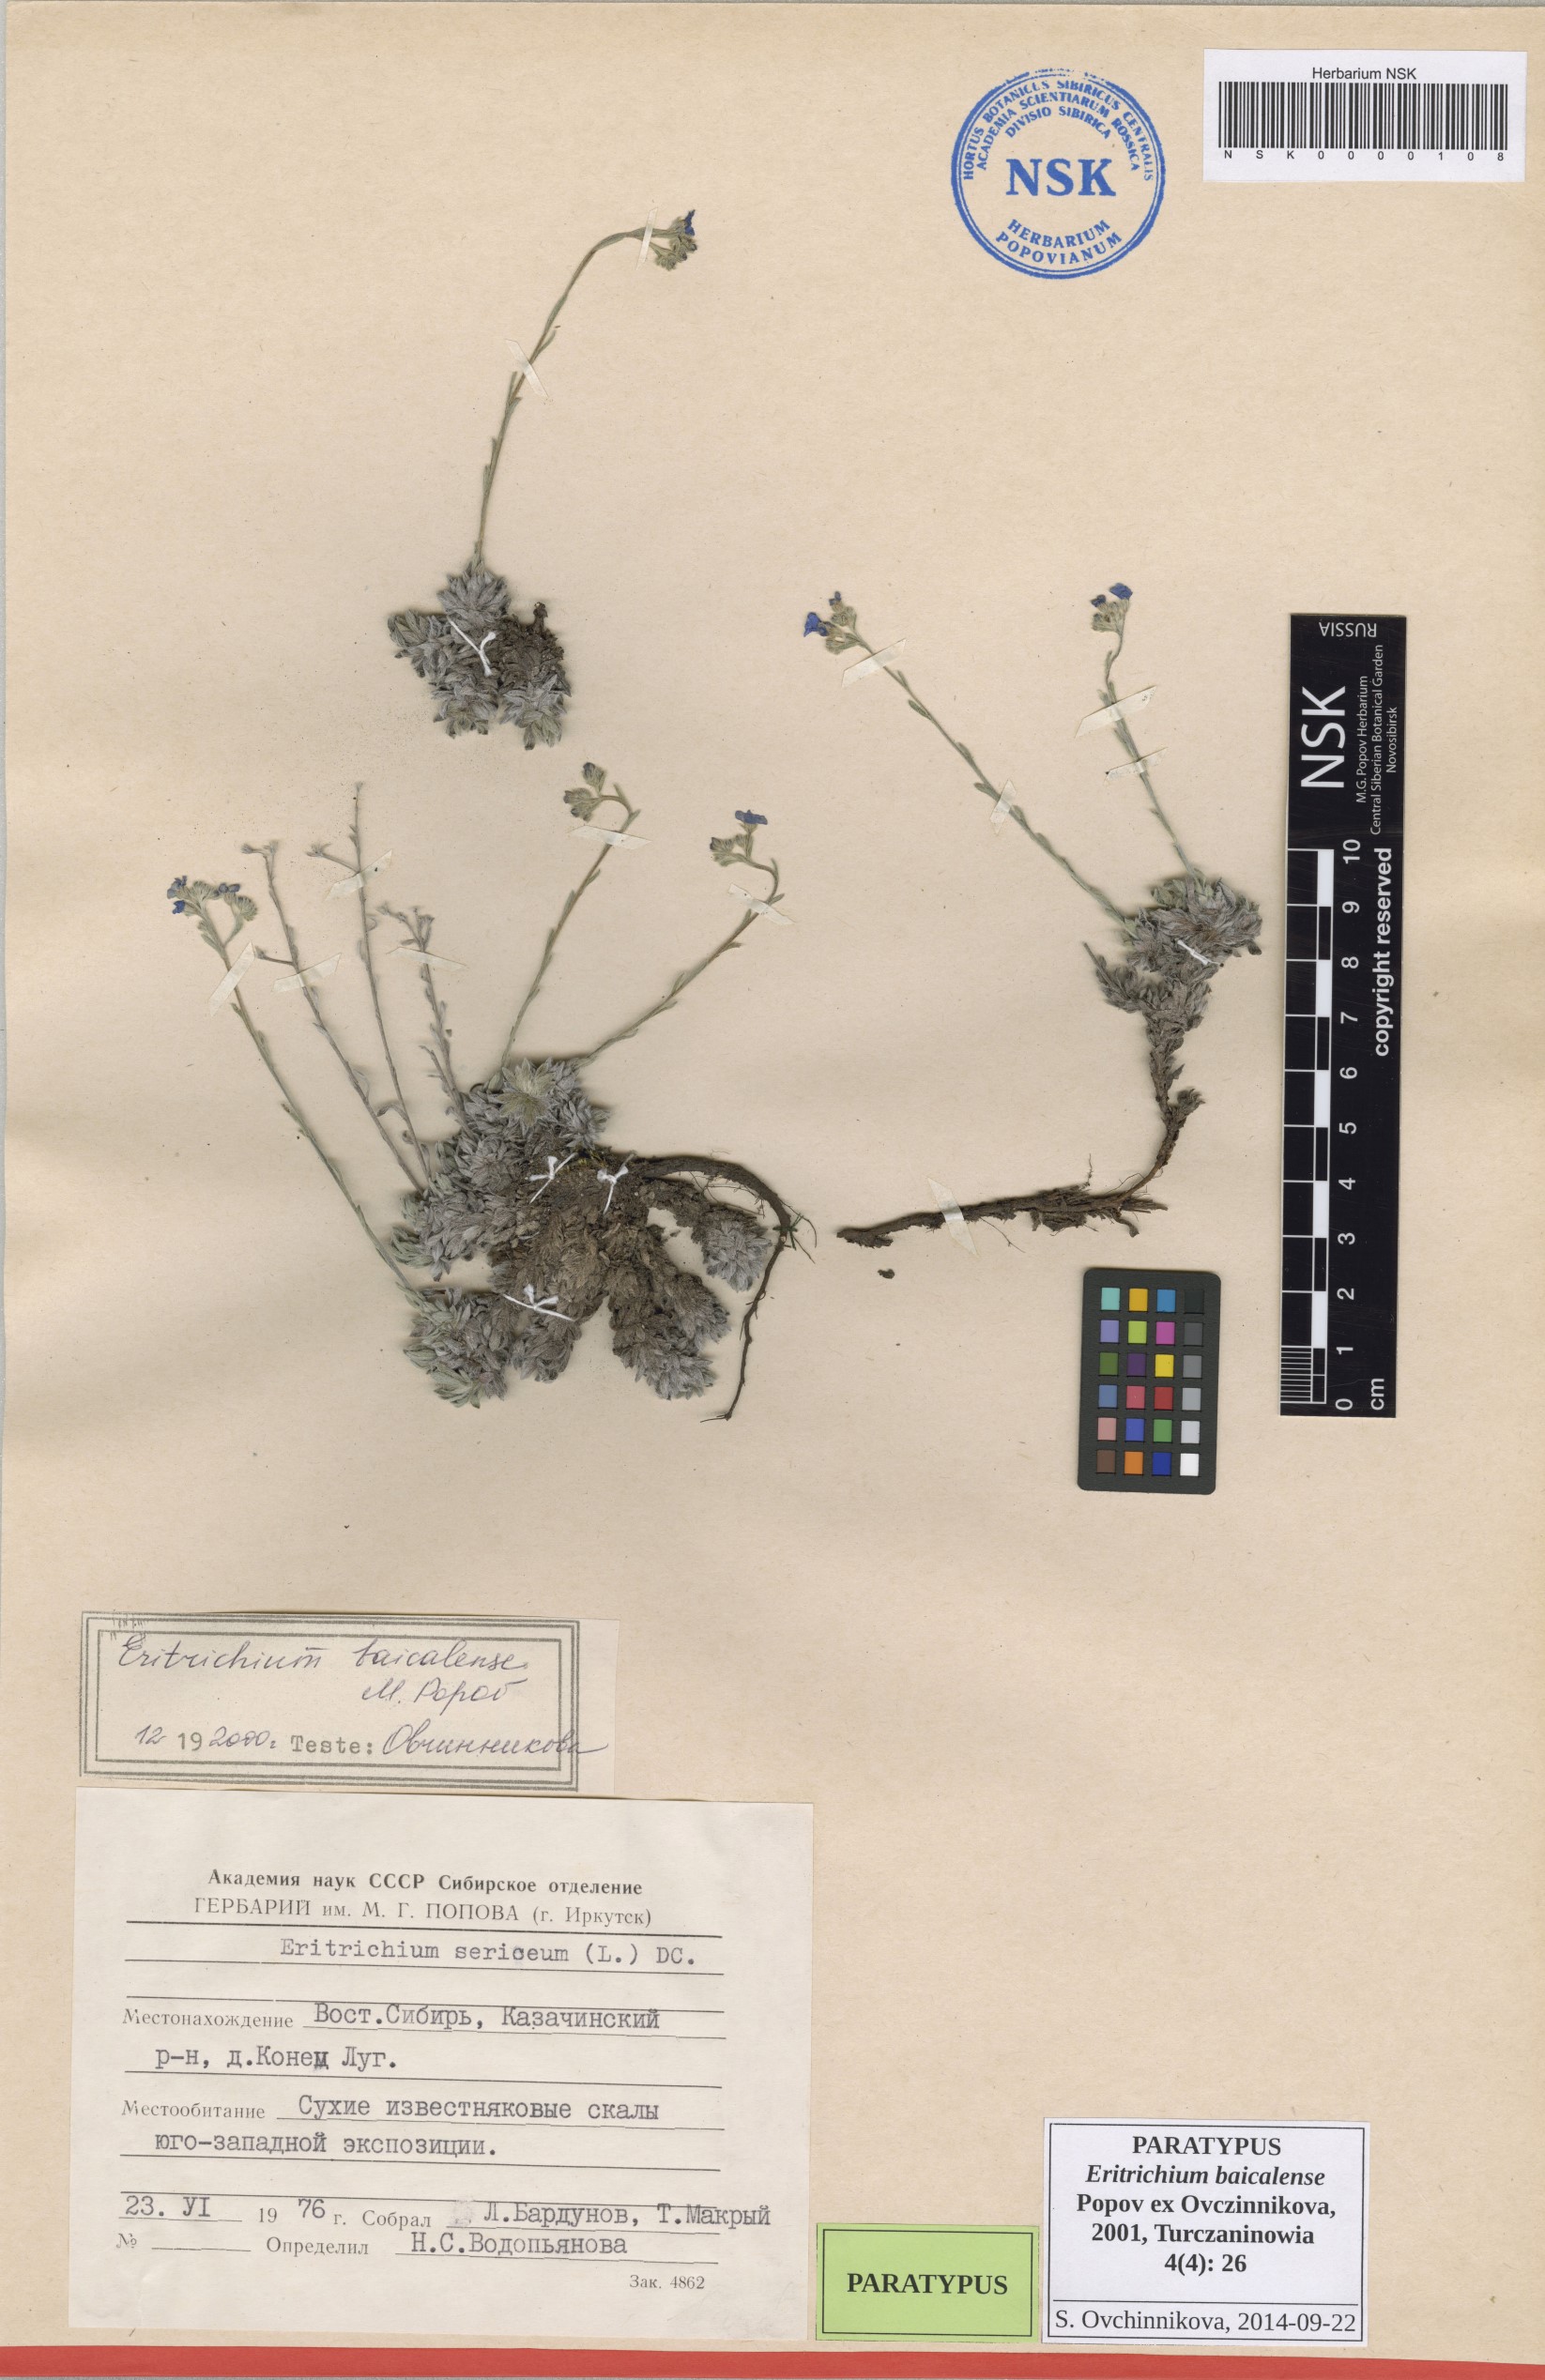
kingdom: Plantae
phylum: Tracheophyta
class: Magnoliopsida
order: Boraginales
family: Boraginaceae
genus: Eritrichium
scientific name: Eritrichium baicalense
